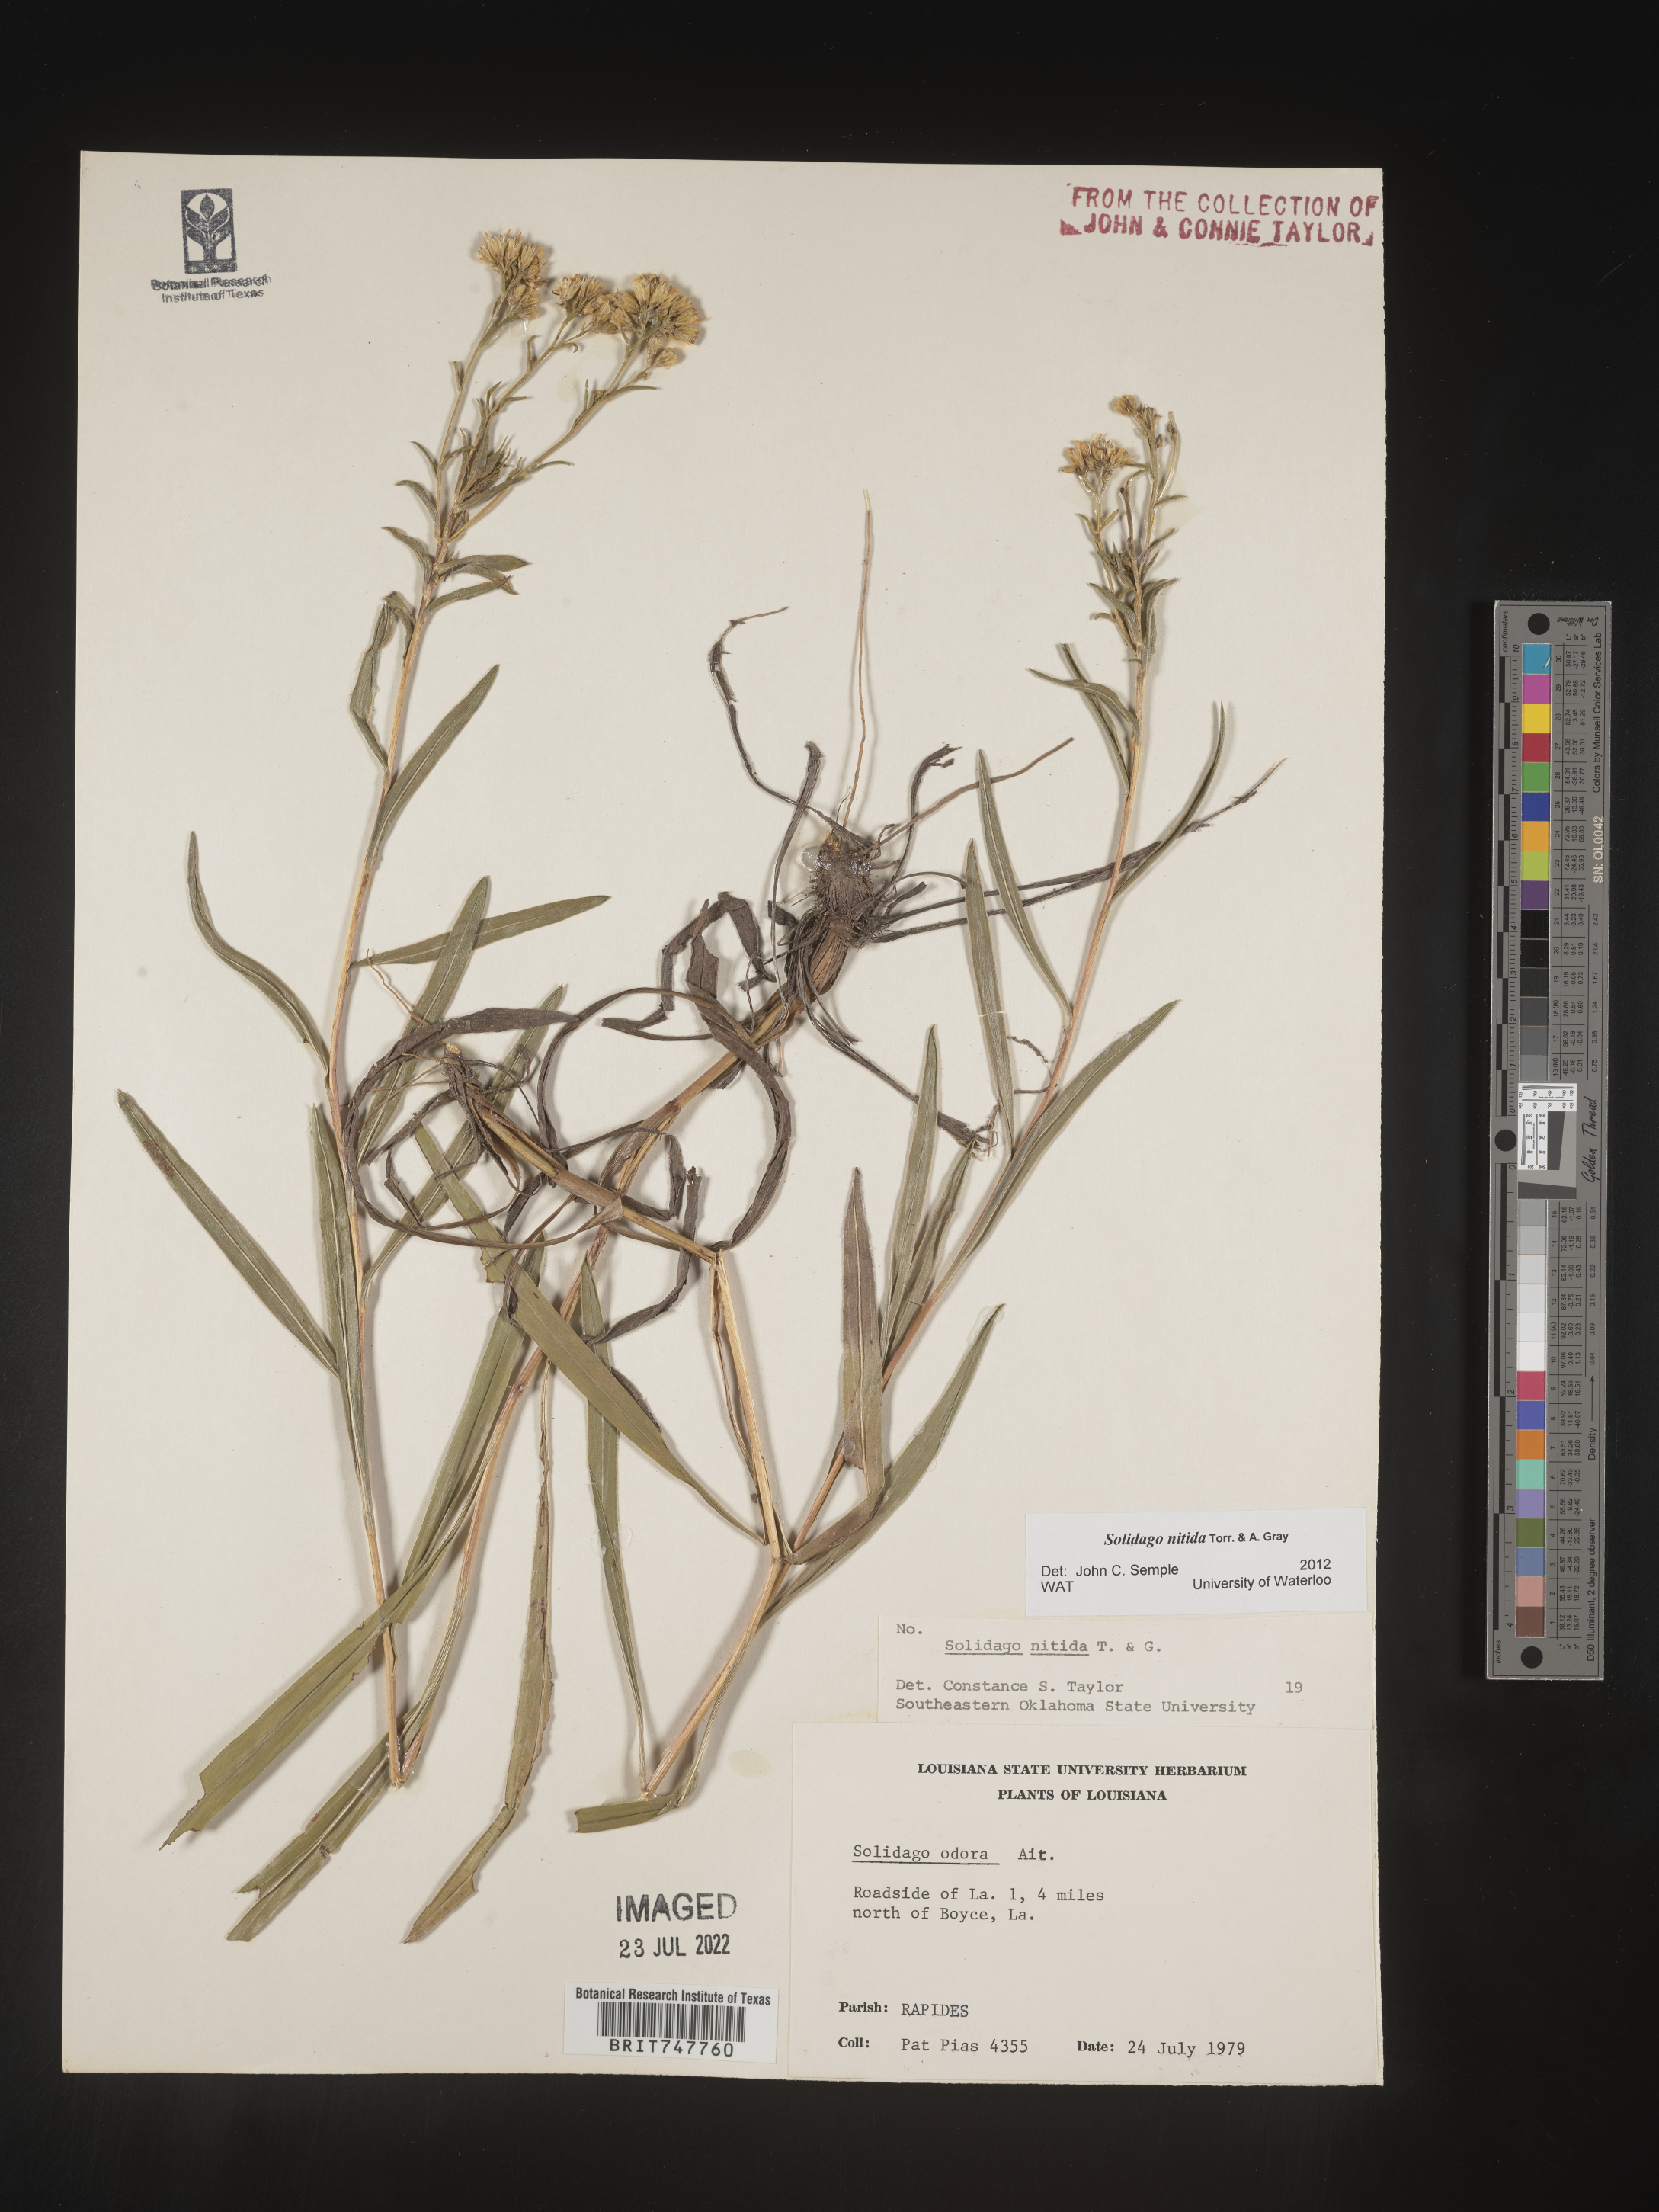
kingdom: Plantae
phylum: Tracheophyta
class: Magnoliopsida
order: Asterales
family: Asteraceae
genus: Solidago
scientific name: Solidago nitida
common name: Shiny goldenrod
